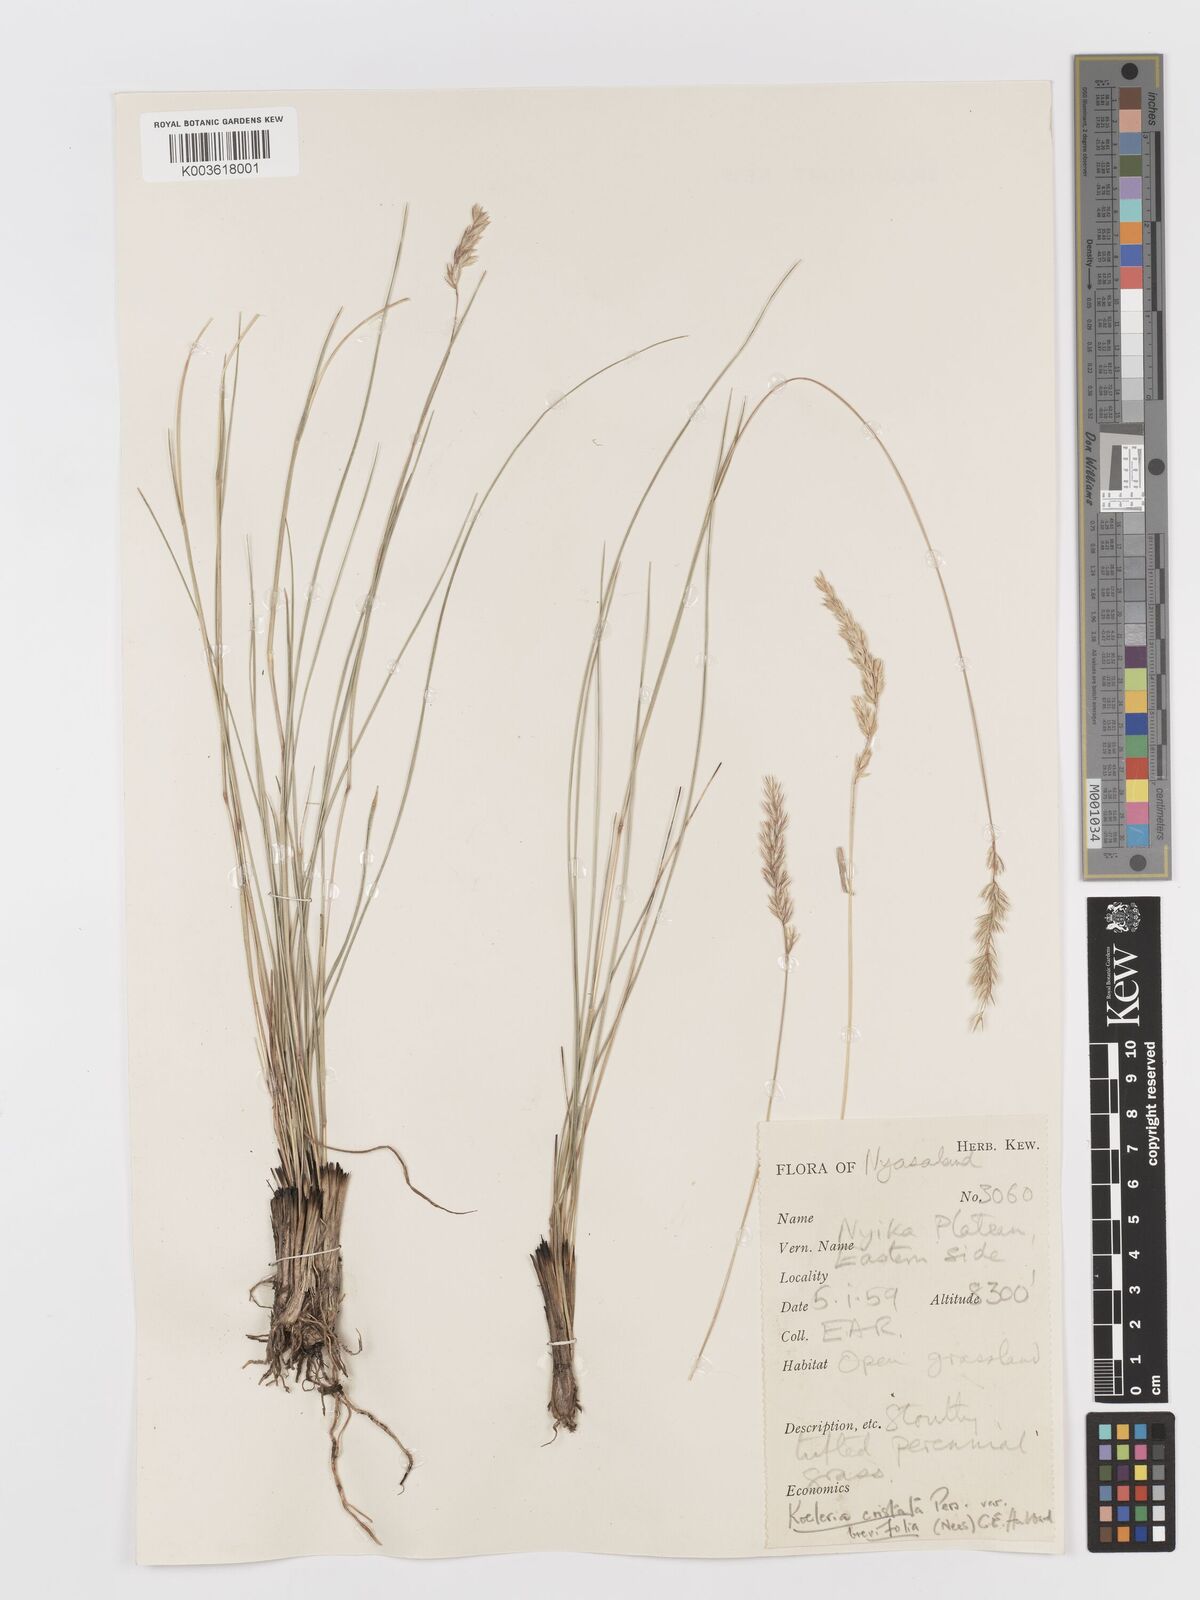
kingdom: Plantae
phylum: Tracheophyta
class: Liliopsida
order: Poales
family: Poaceae
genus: Koeleria
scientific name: Koeleria capensis
